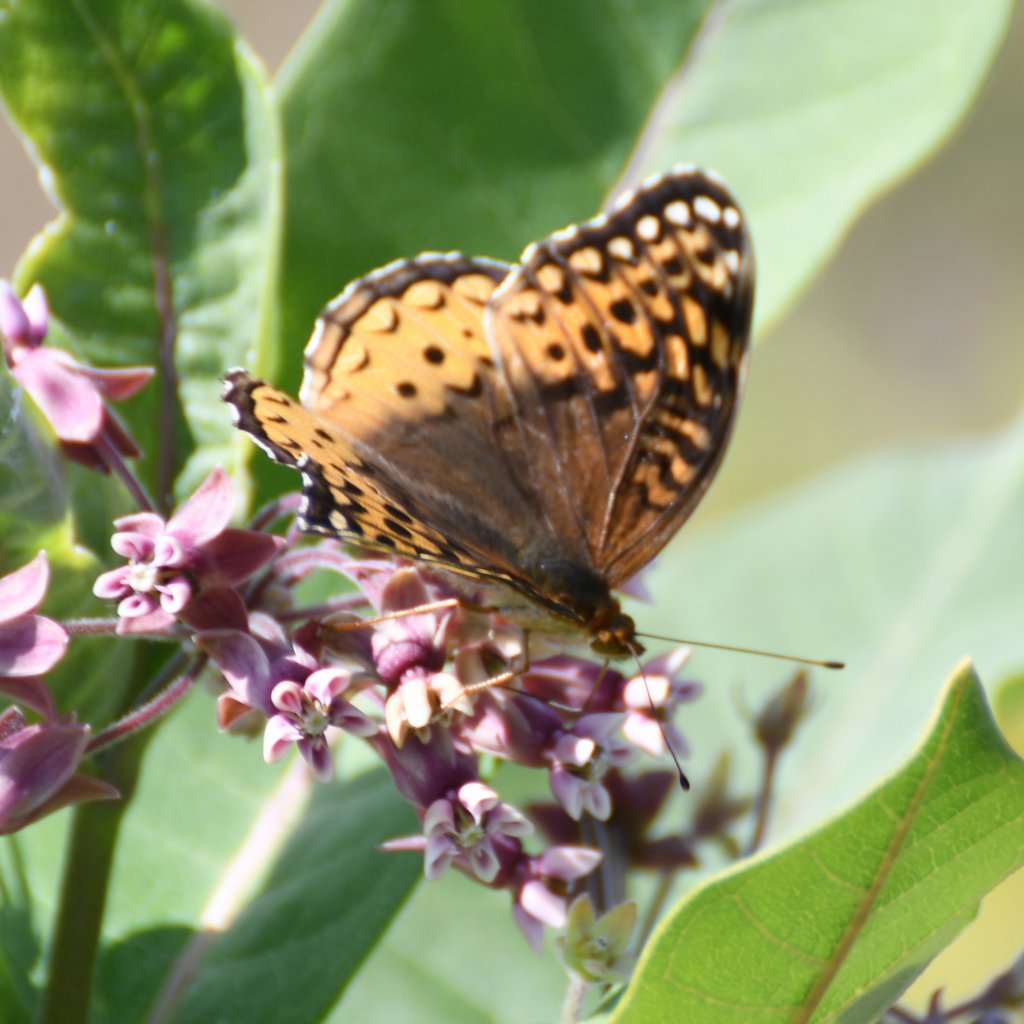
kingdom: Animalia
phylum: Arthropoda
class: Insecta
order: Lepidoptera
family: Nymphalidae
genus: Speyeria
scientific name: Speyeria cybele
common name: Great Spangled Fritillary
